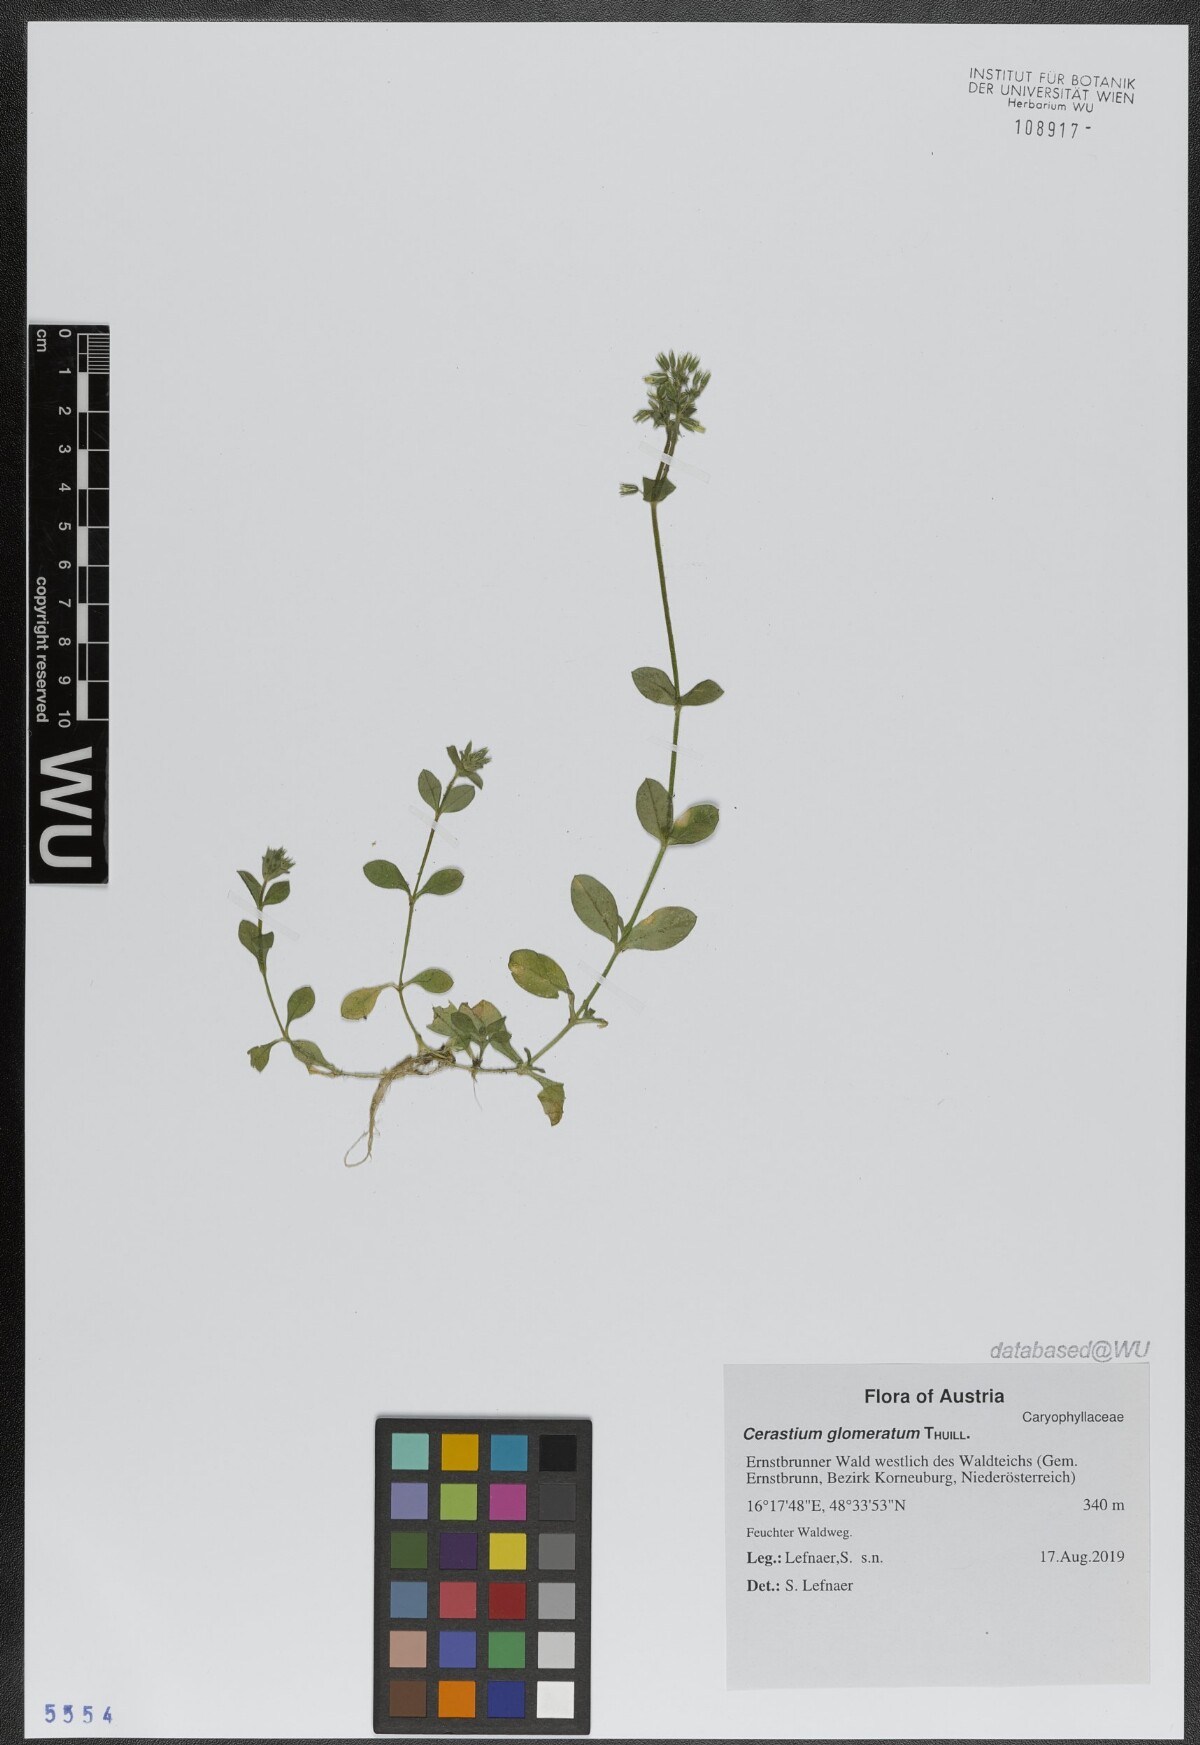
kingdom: Plantae
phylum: Tracheophyta
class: Magnoliopsida
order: Caryophyllales
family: Caryophyllaceae
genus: Cerastium
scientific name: Cerastium glomeratum
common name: Sticky chickweed
